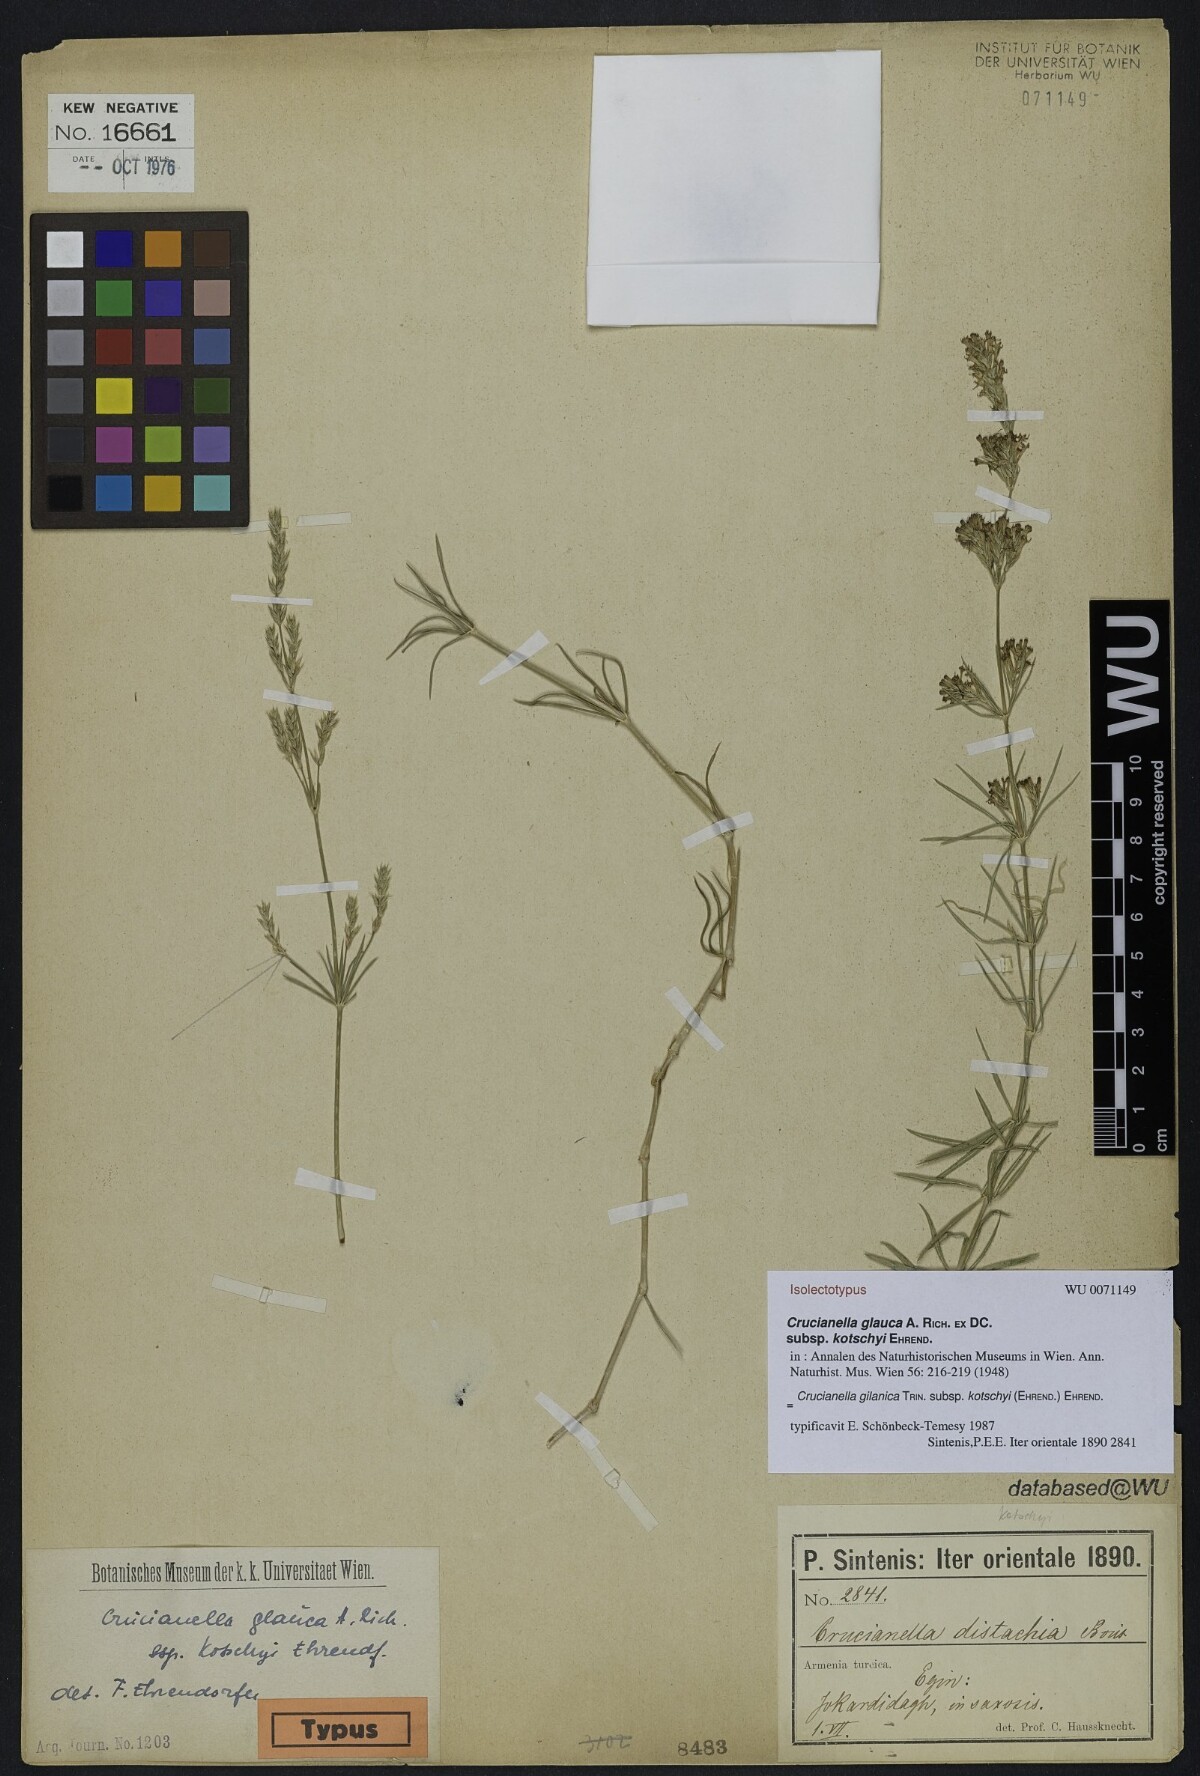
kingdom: Plantae
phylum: Tracheophyta
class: Magnoliopsida
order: Gentianales
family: Rubiaceae
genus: Crucianella
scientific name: Crucianella gilanica
